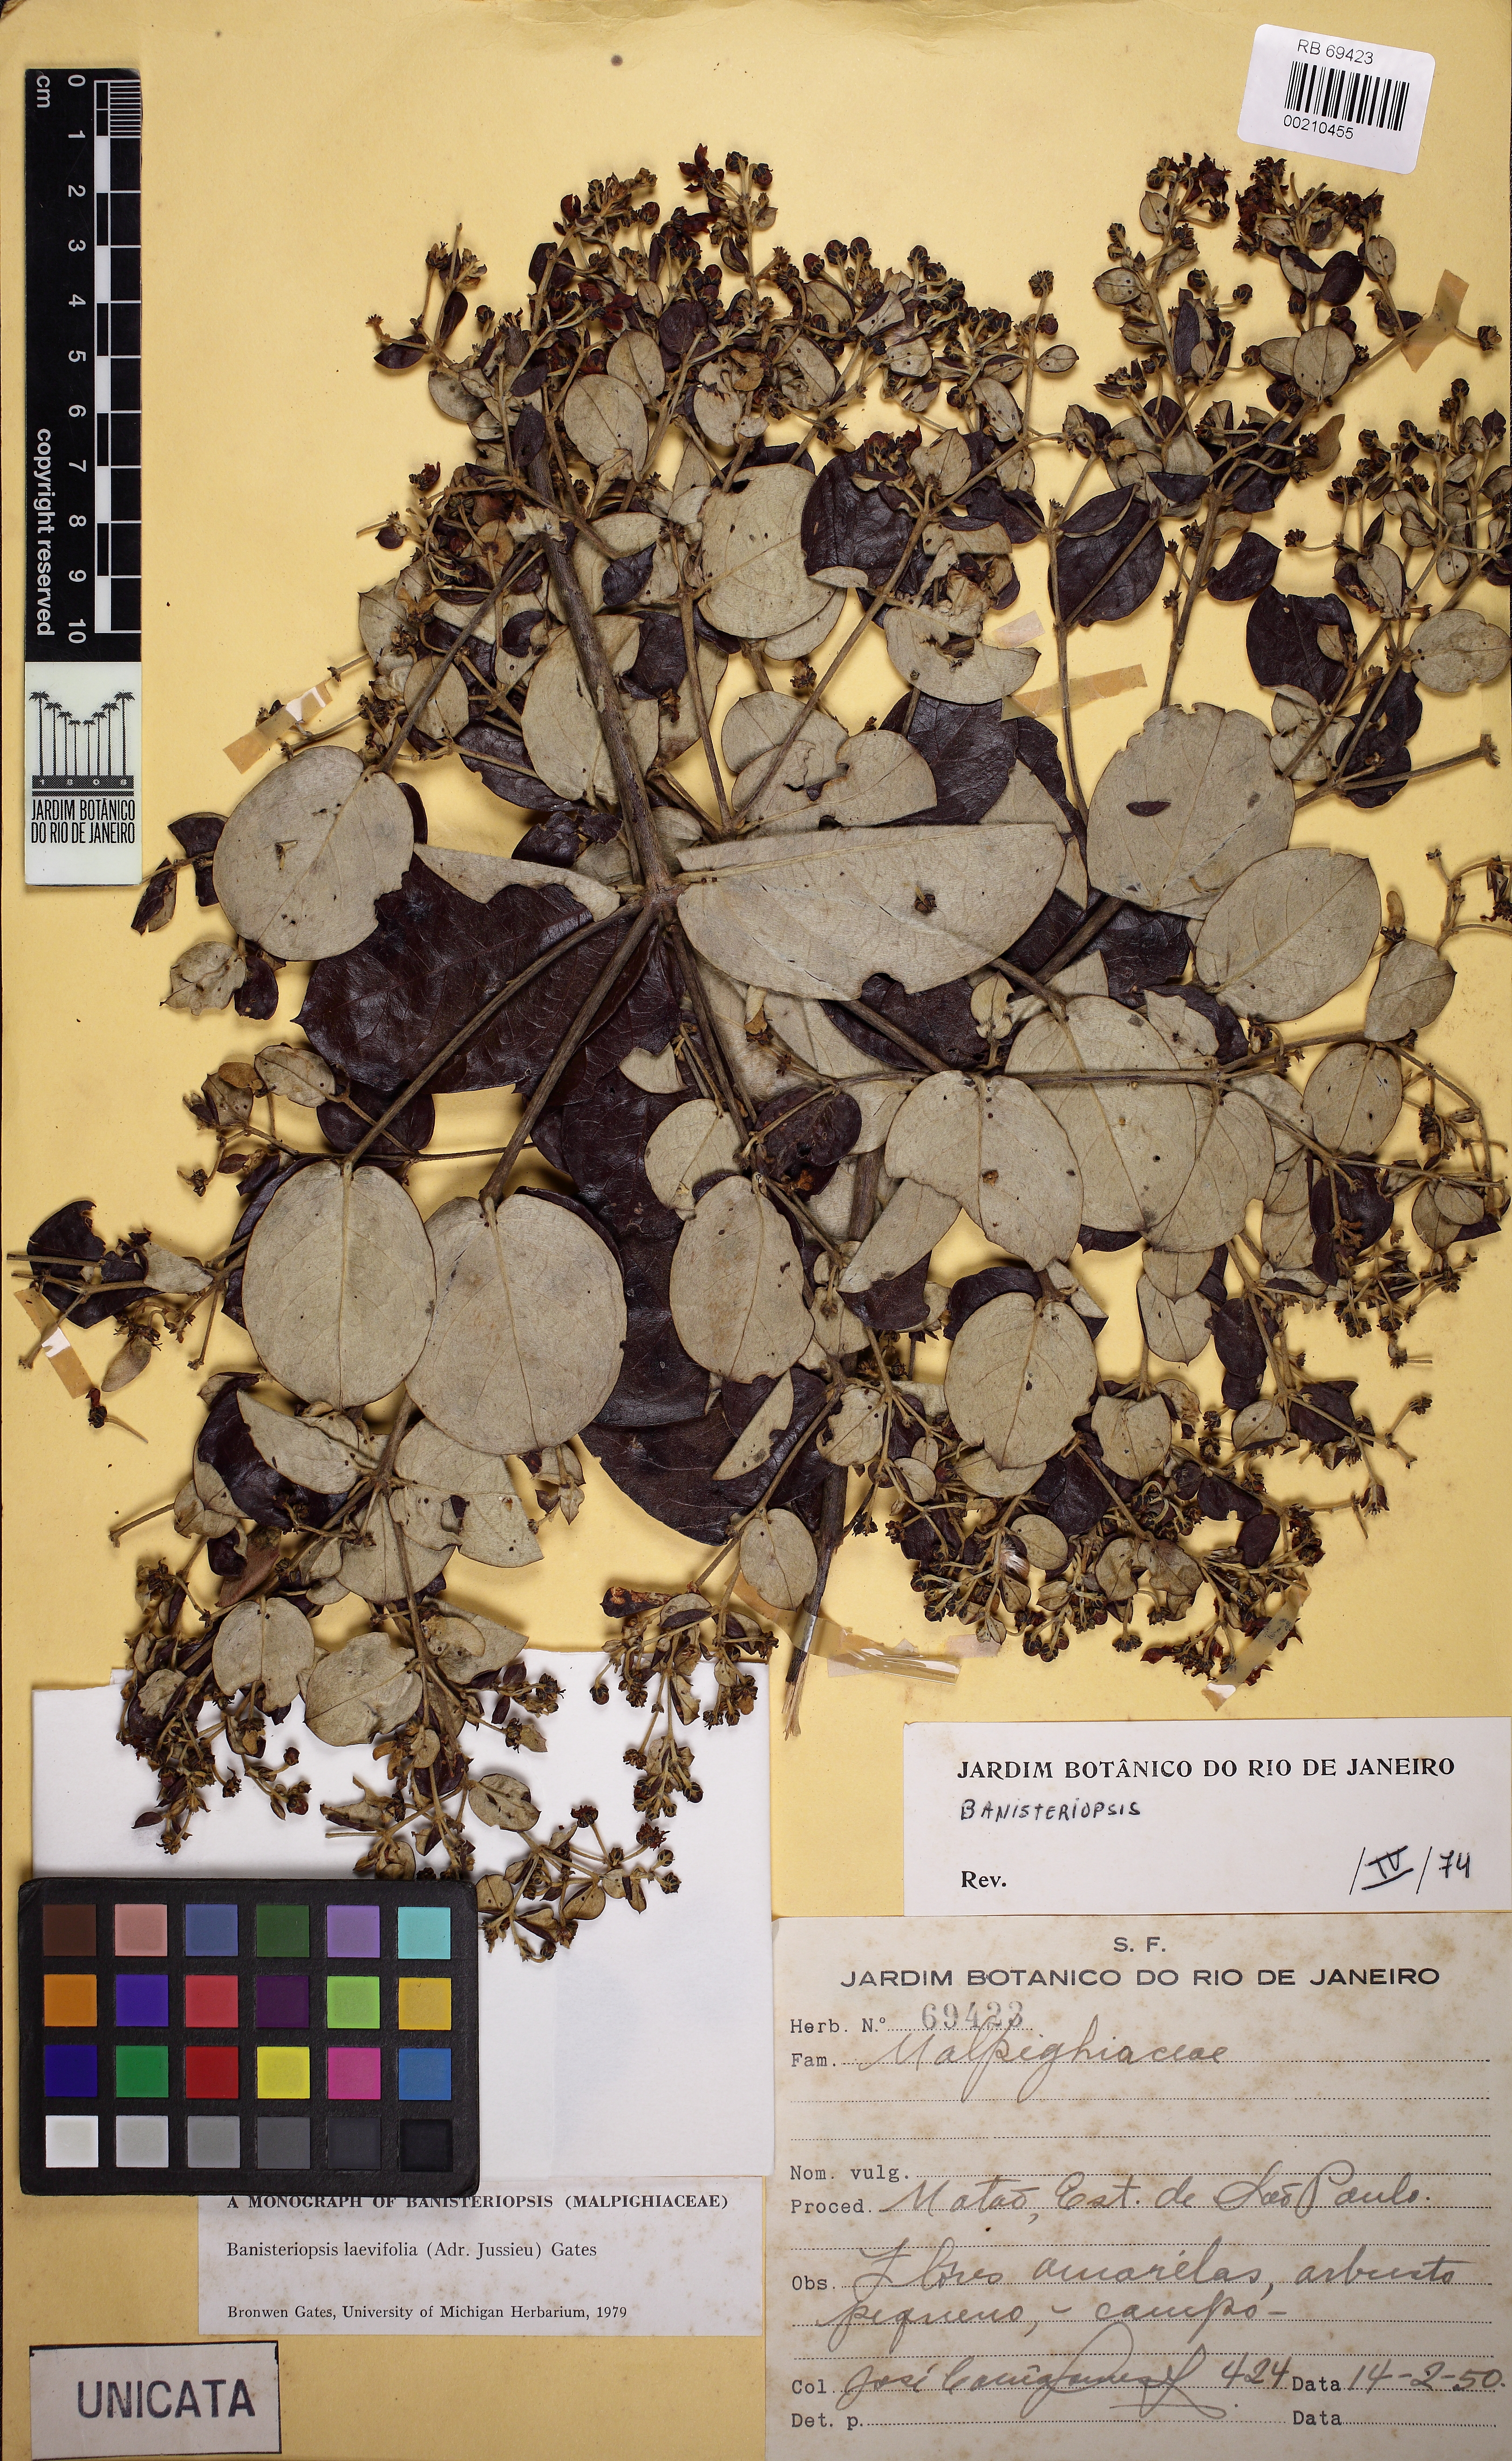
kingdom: Plantae
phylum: Tracheophyta
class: Magnoliopsida
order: Malpighiales
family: Malpighiaceae
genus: Banisteriopsis
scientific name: Banisteriopsis laevifolia
